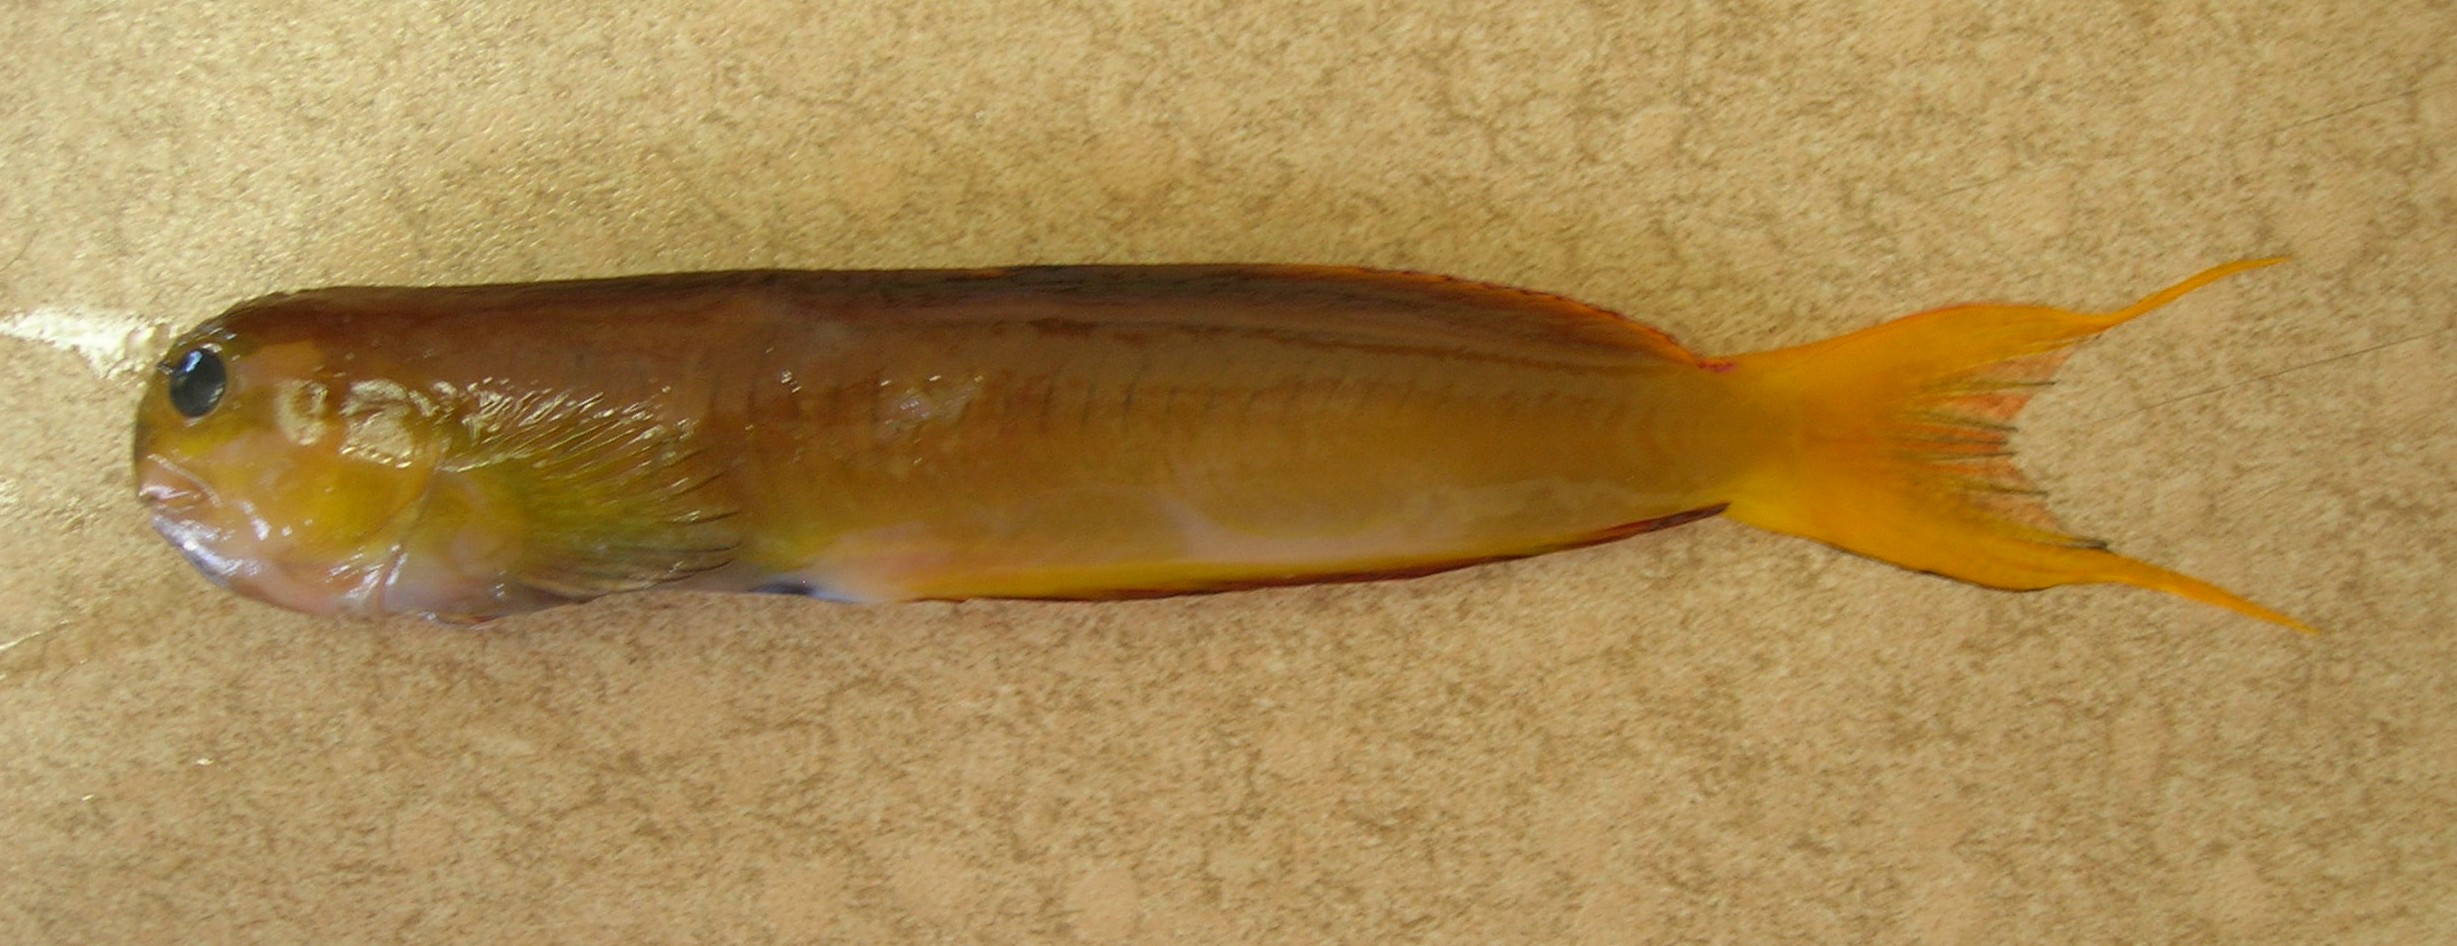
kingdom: Animalia
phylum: Chordata
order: Perciformes
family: Blenniidae
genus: Ecsenius
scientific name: Ecsenius midas
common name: Golden blenny
